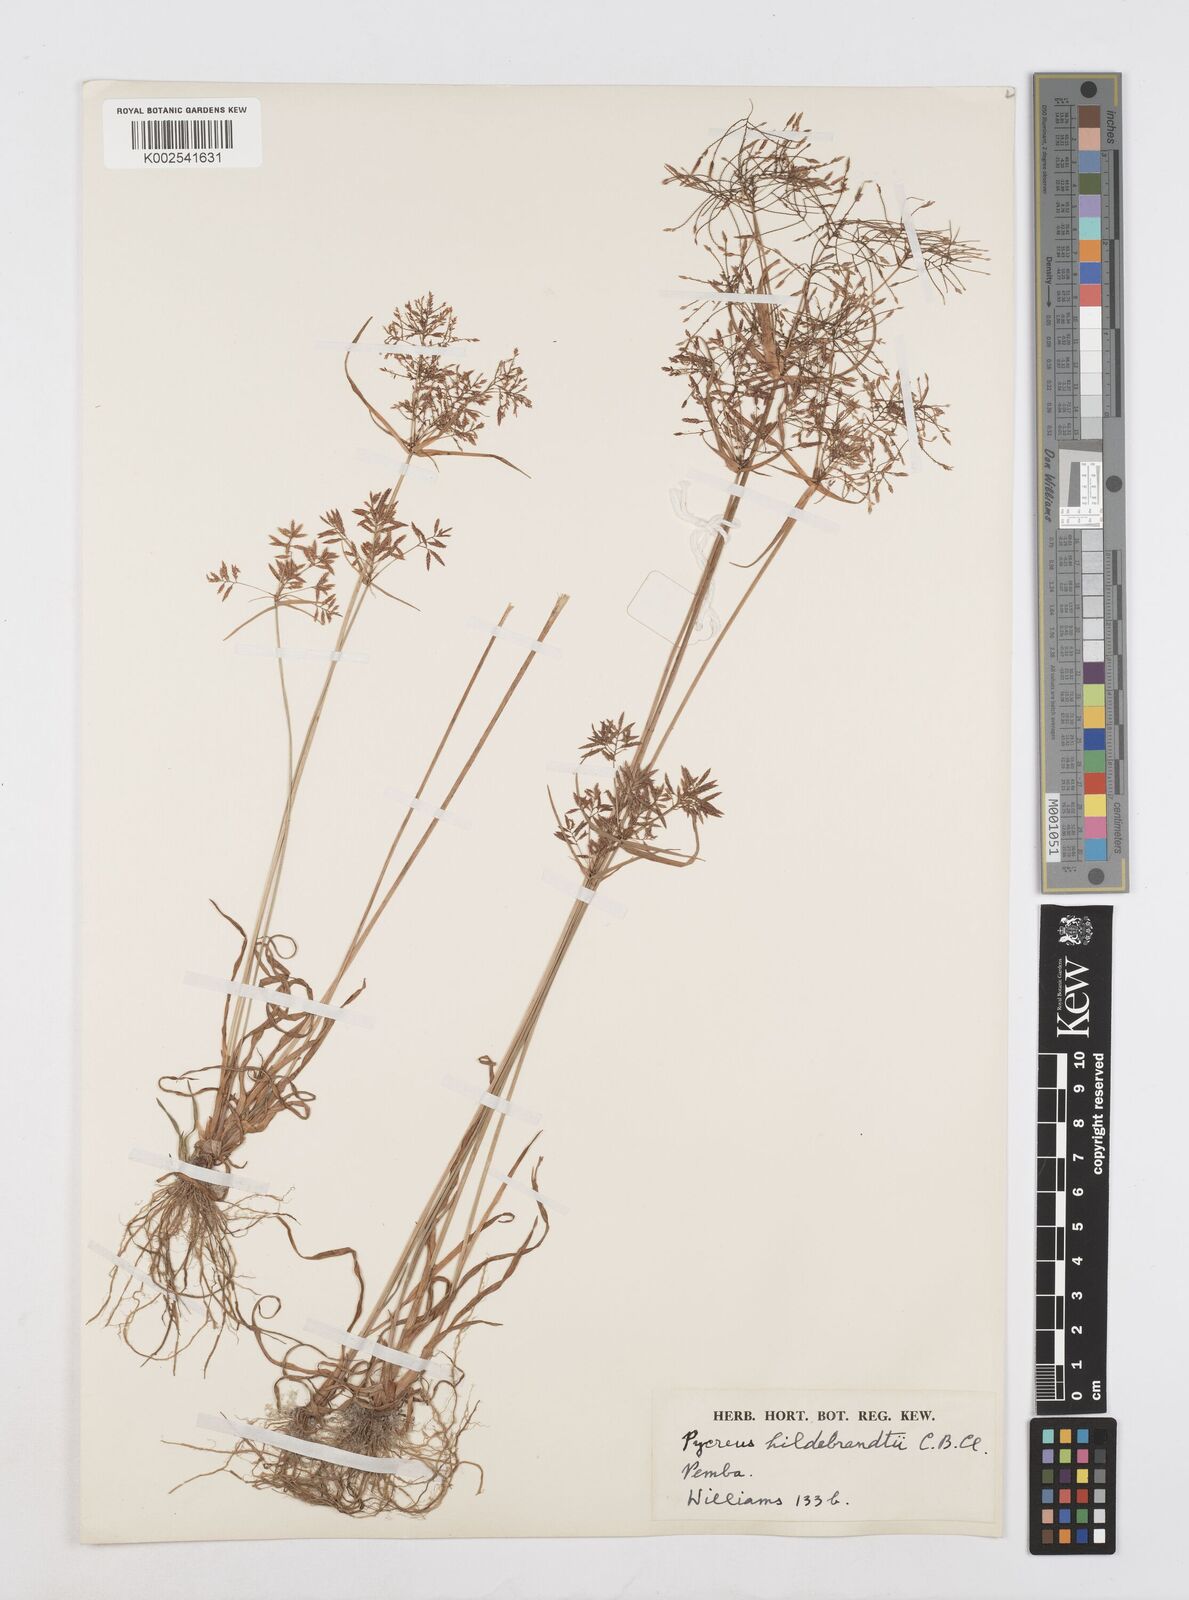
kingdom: Plantae
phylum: Tracheophyta
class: Liliopsida
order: Poales
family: Cyperaceae
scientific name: Cyperaceae
